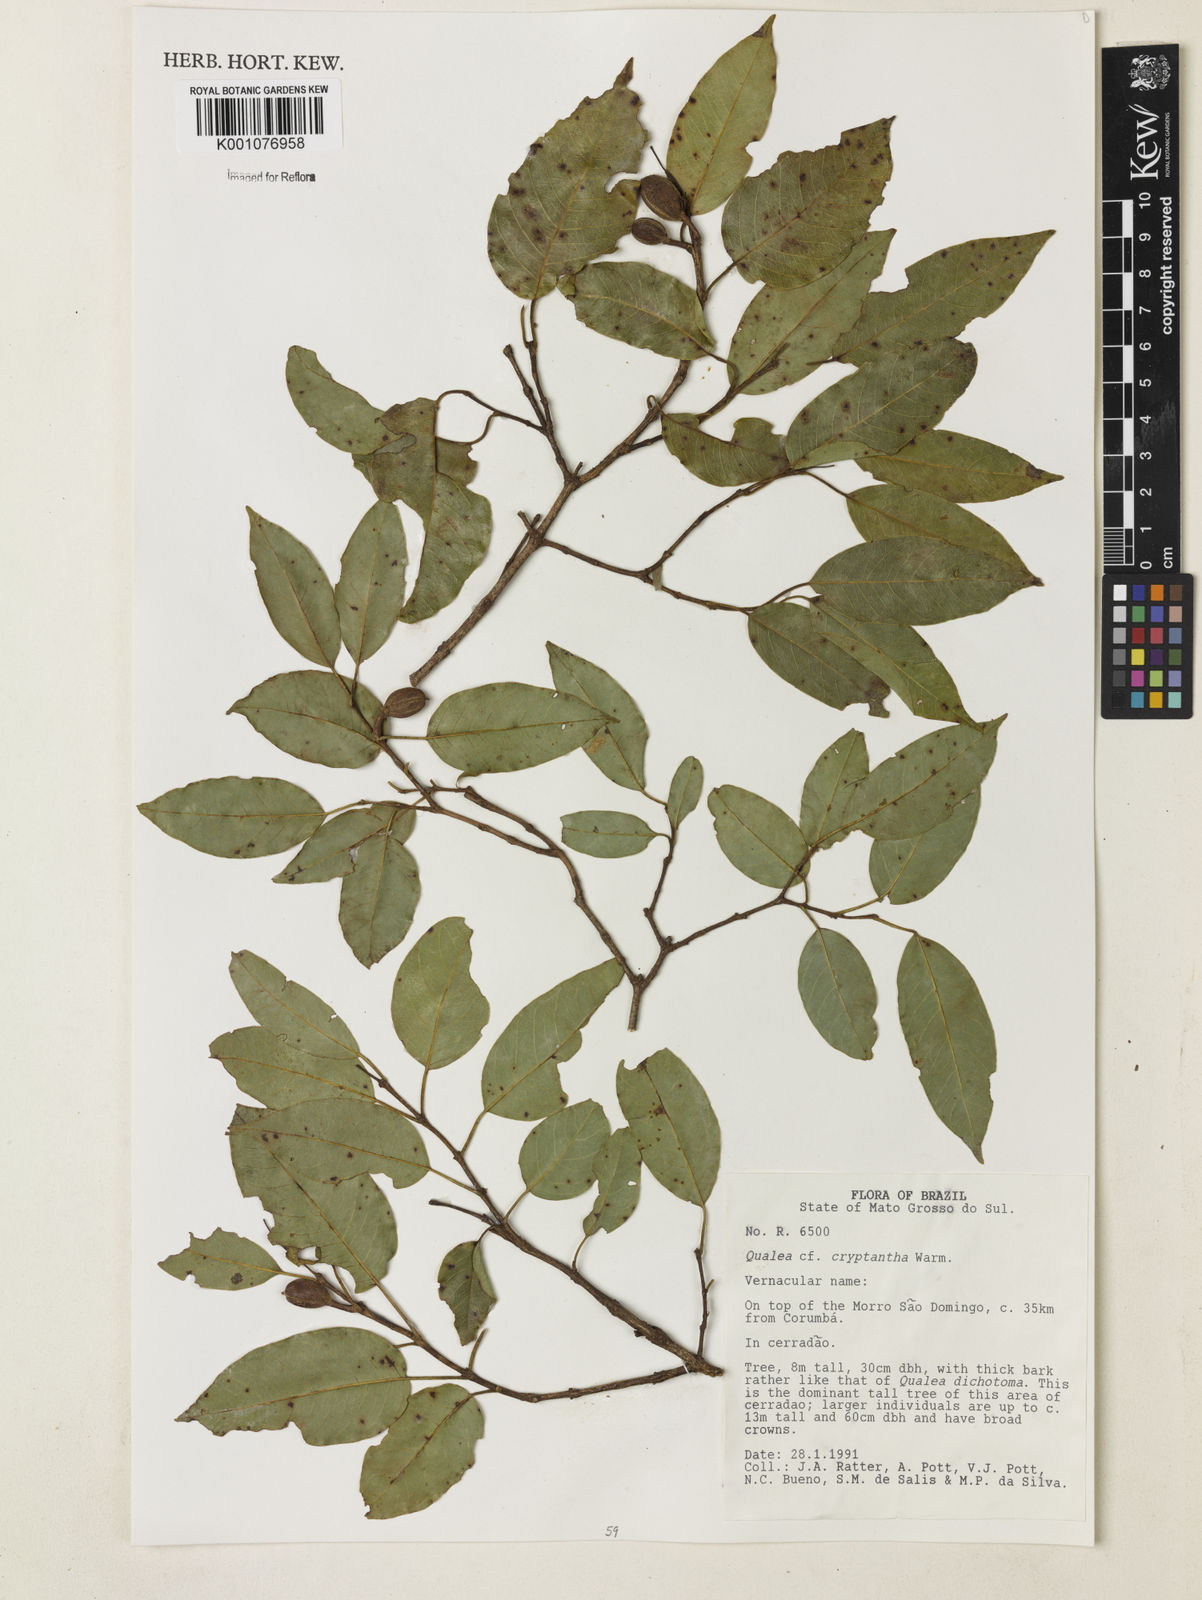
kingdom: Plantae
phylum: Tracheophyta
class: Magnoliopsida
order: Myrtales
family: Vochysiaceae
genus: Qualea
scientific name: Qualea cryptantha
